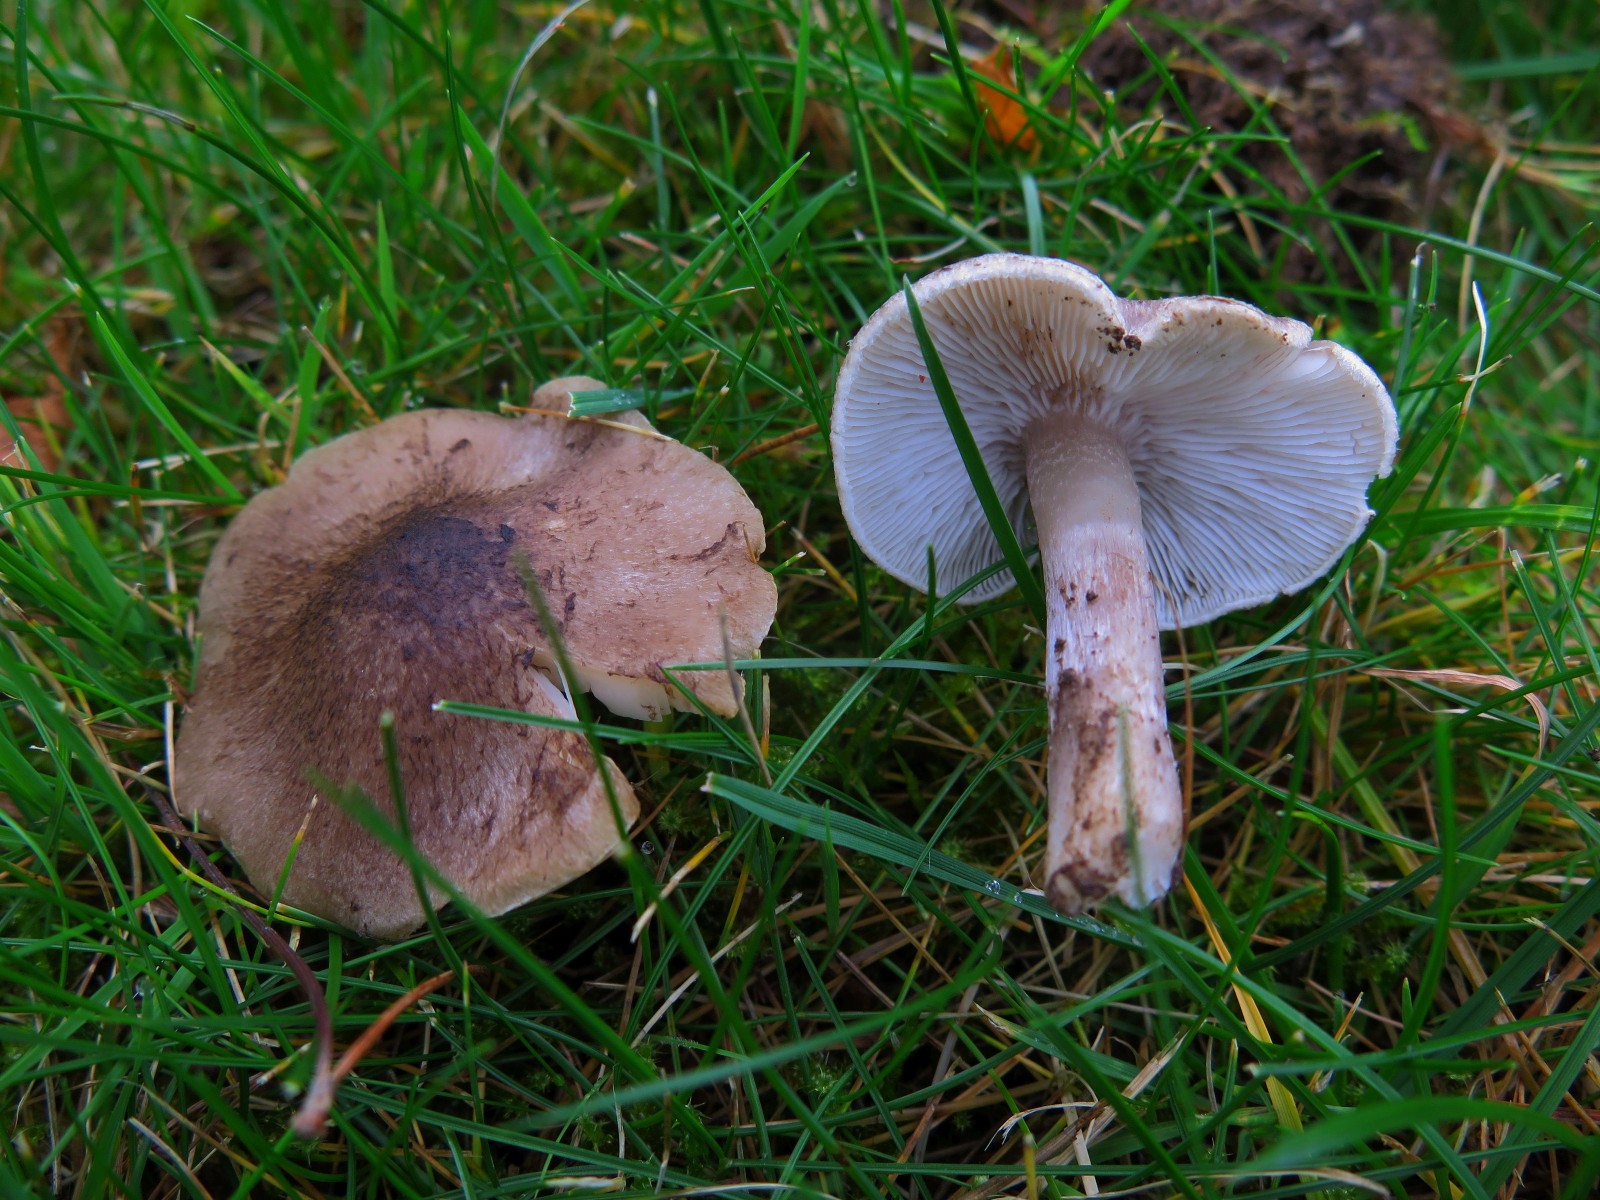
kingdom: Fungi
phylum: Basidiomycota
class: Agaricomycetes
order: Agaricales
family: Tricholomataceae
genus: Tricholoma
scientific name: Tricholoma
